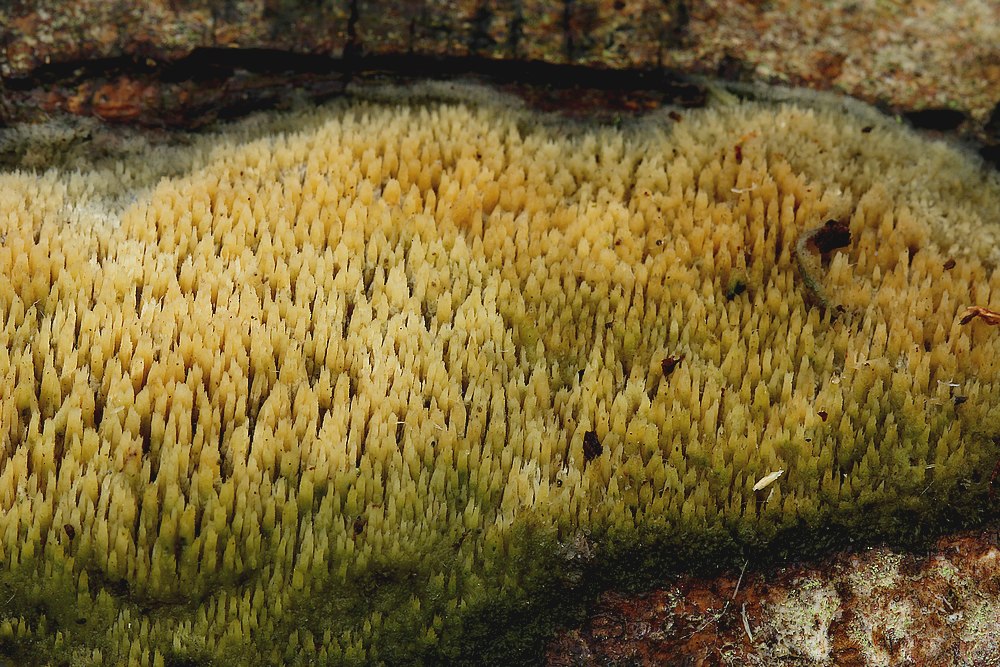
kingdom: Fungi
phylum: Basidiomycota
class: Agaricomycetes
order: Hymenochaetales
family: Hyphodontiaceae
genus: Hyphodontia
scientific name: Hyphodontia barba-jovis
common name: skægget tandsvamp
